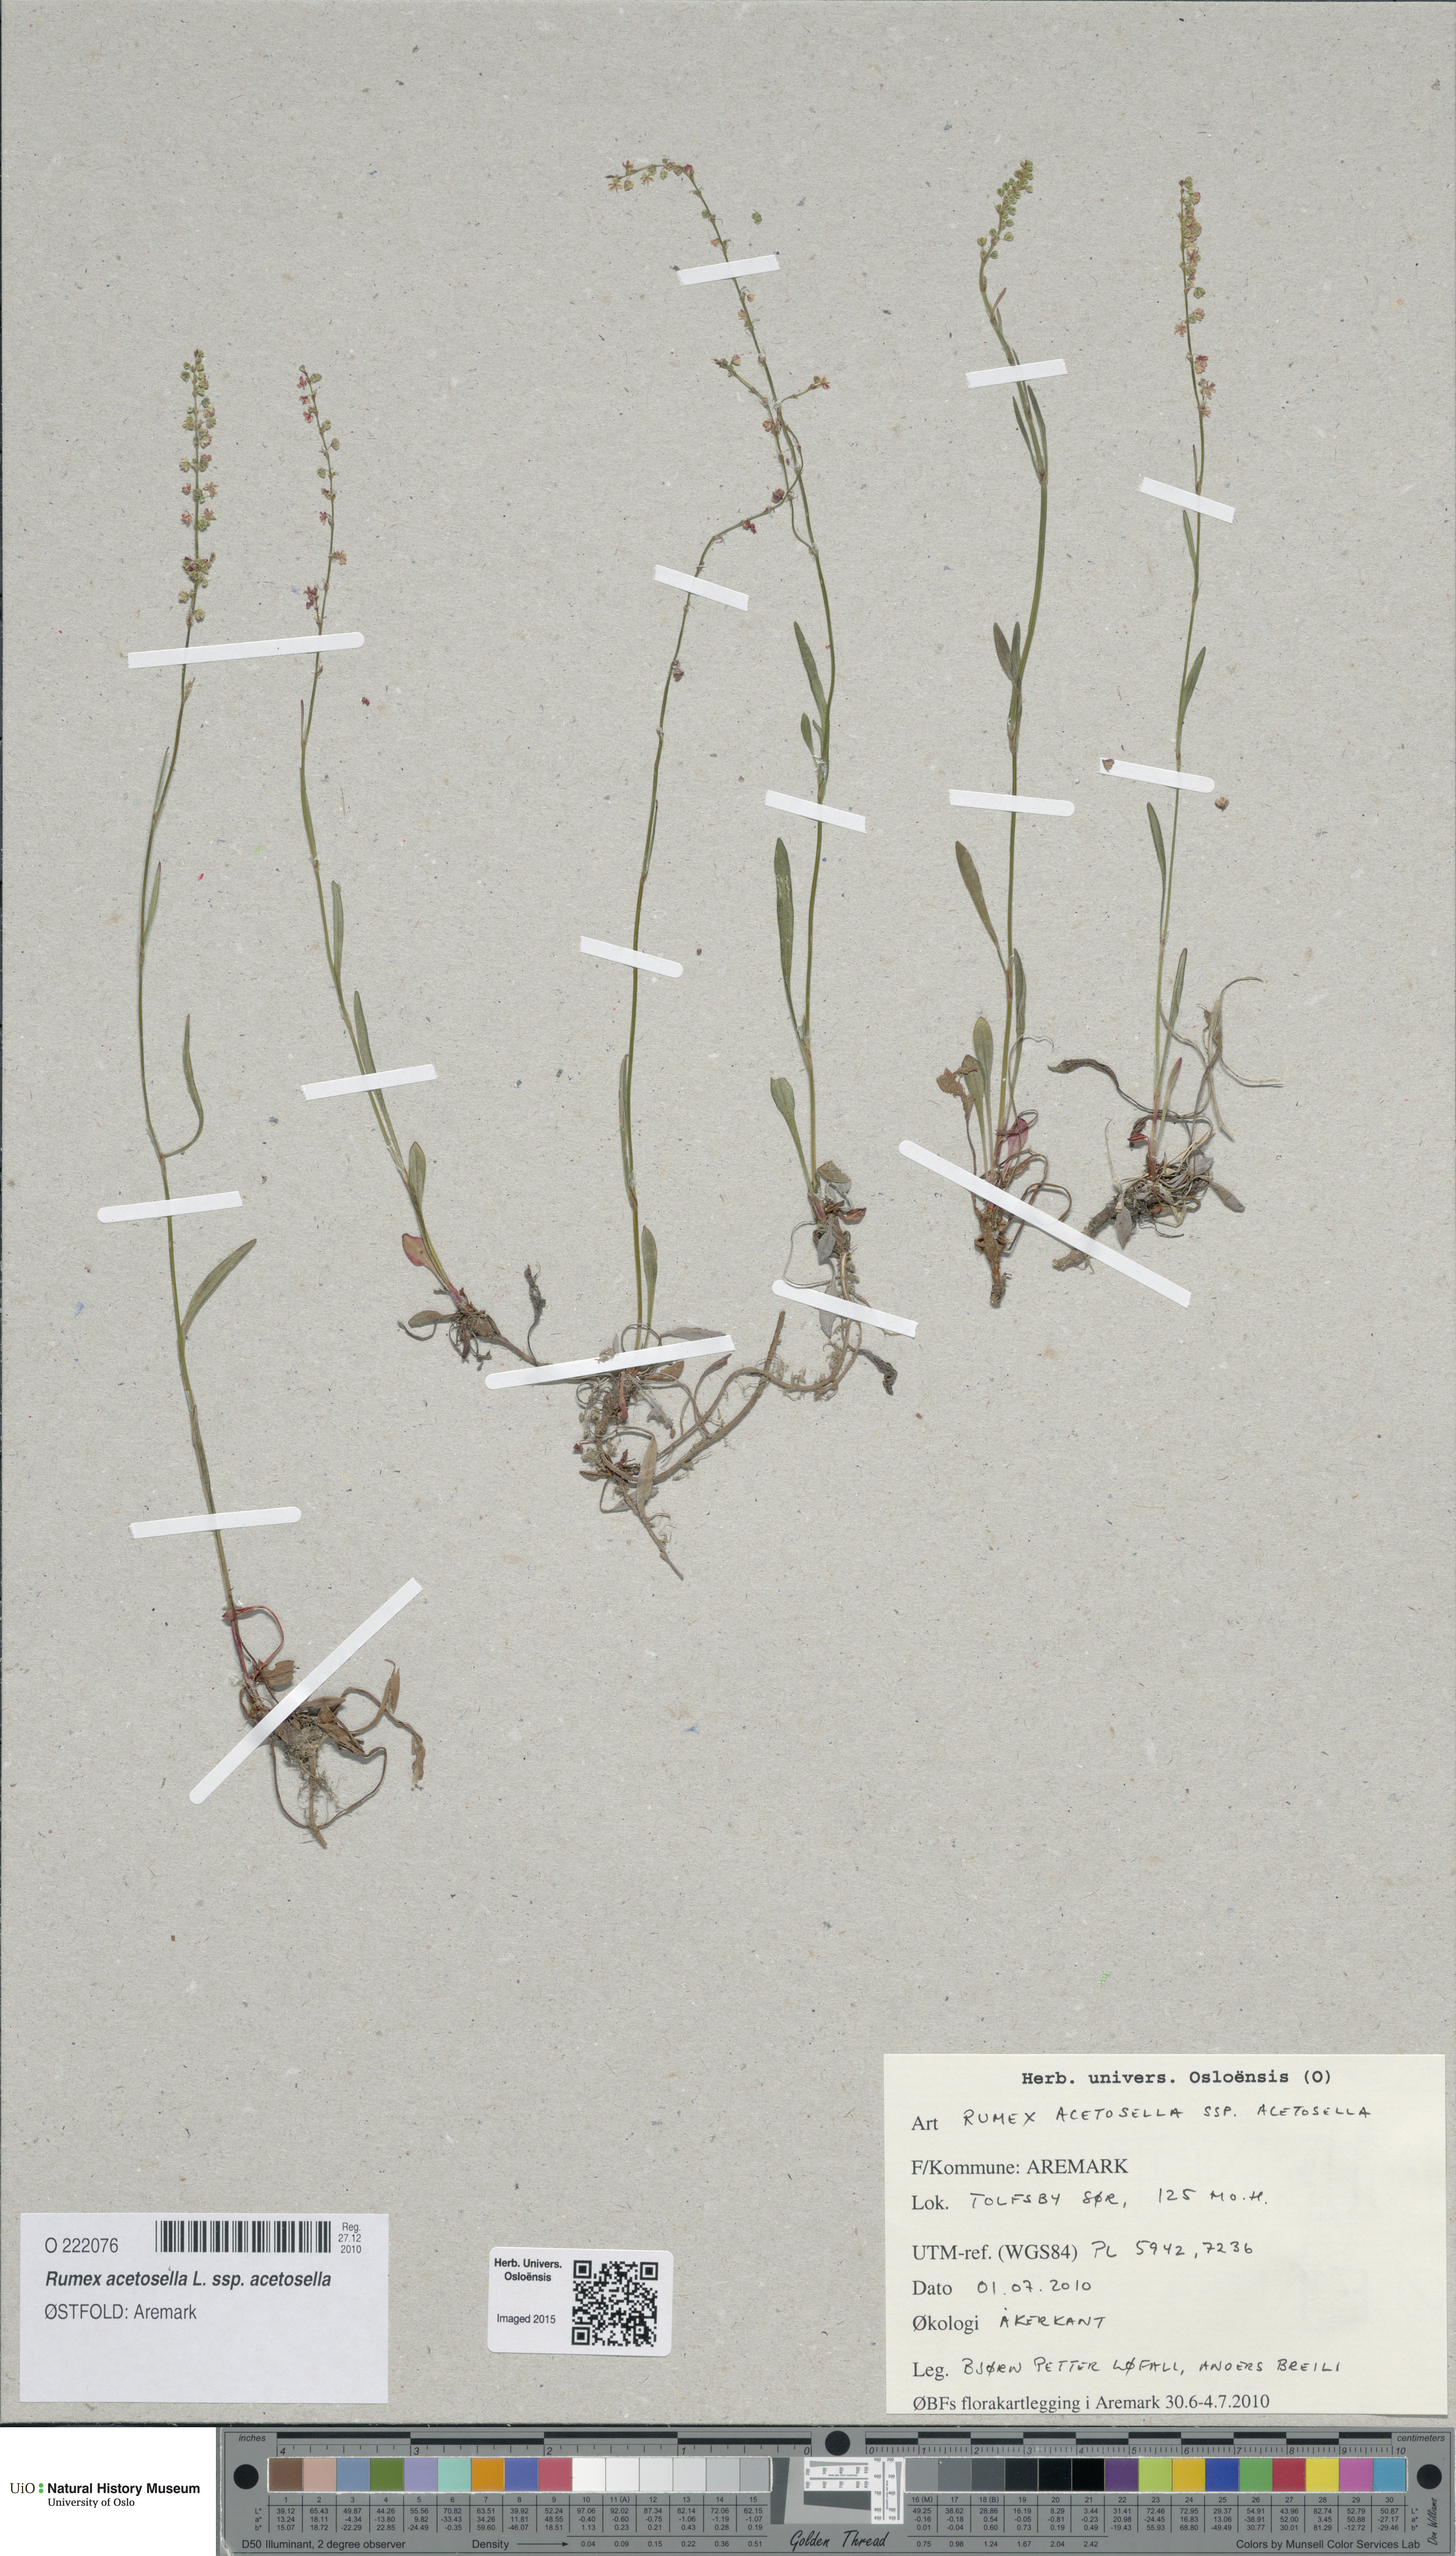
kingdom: Plantae
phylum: Tracheophyta
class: Magnoliopsida
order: Caryophyllales
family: Polygonaceae
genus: Rumex
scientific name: Rumex acetosella
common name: Common sheep sorrel
